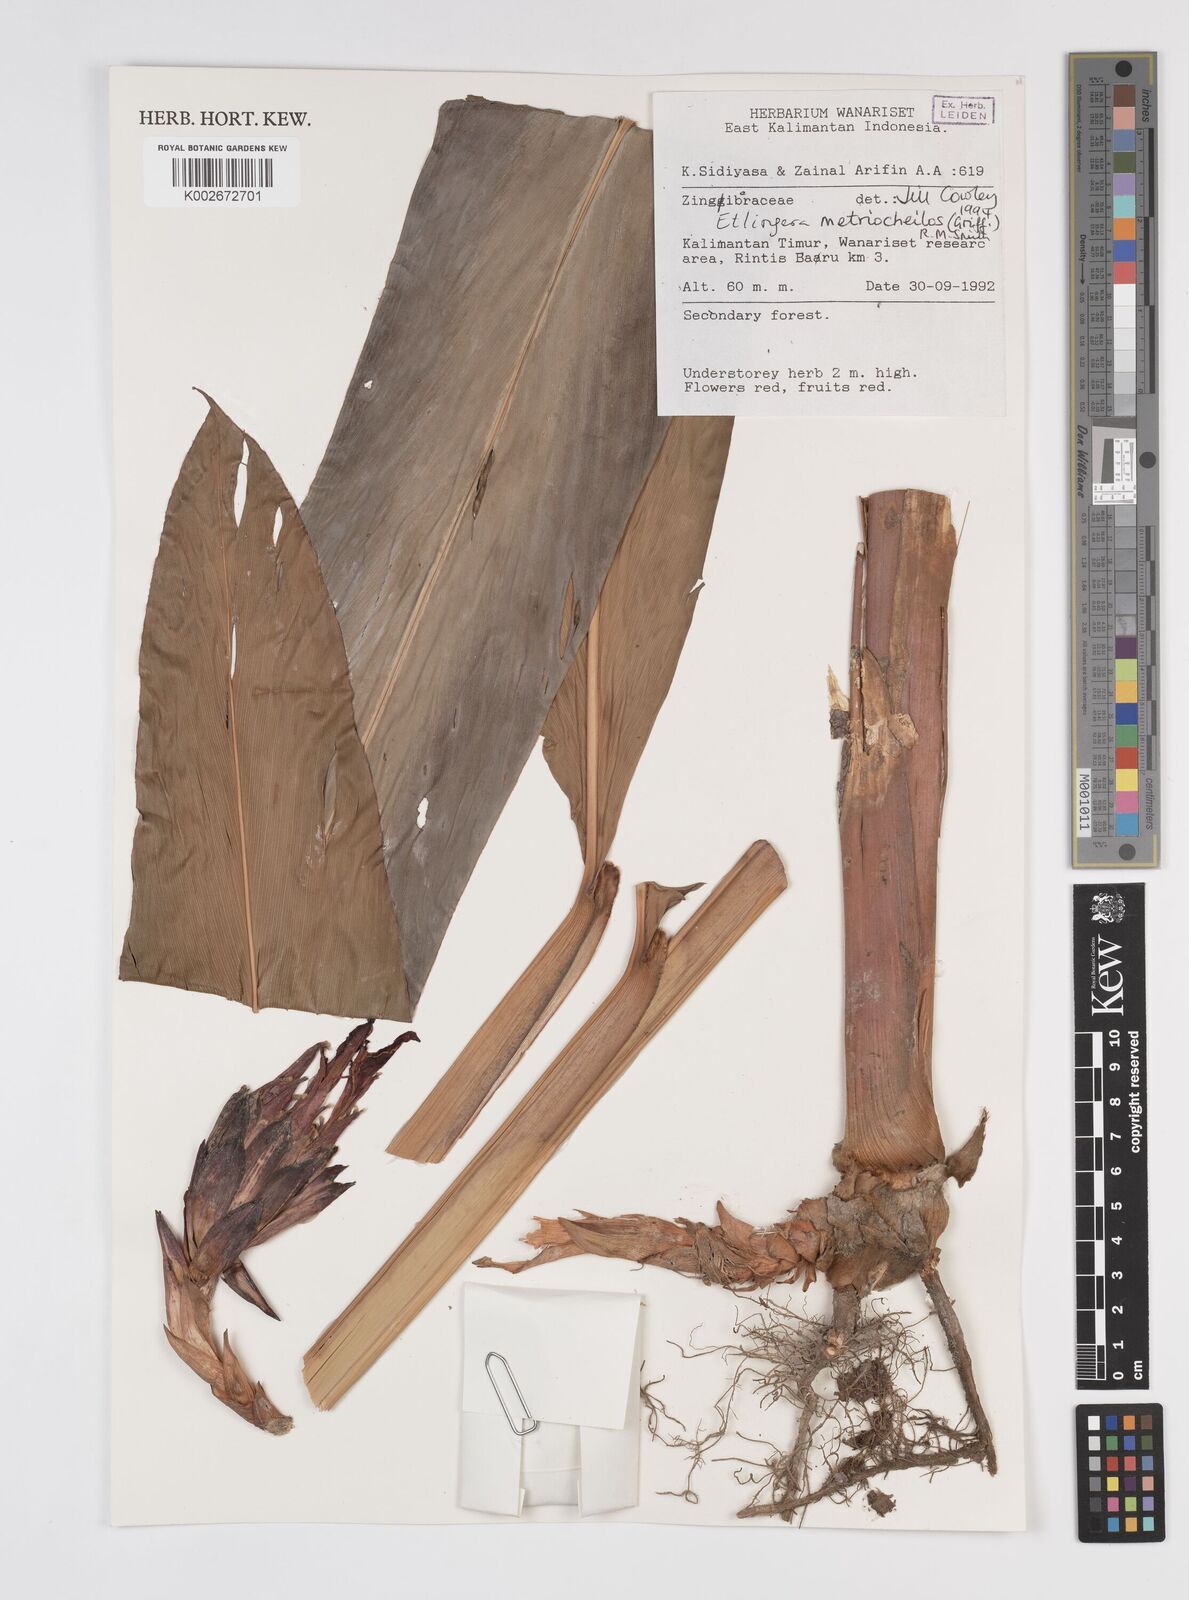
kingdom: Plantae
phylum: Tracheophyta
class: Liliopsida
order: Zingiberales
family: Zingiberaceae
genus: Etlingera
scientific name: Etlingera metriocheilos
